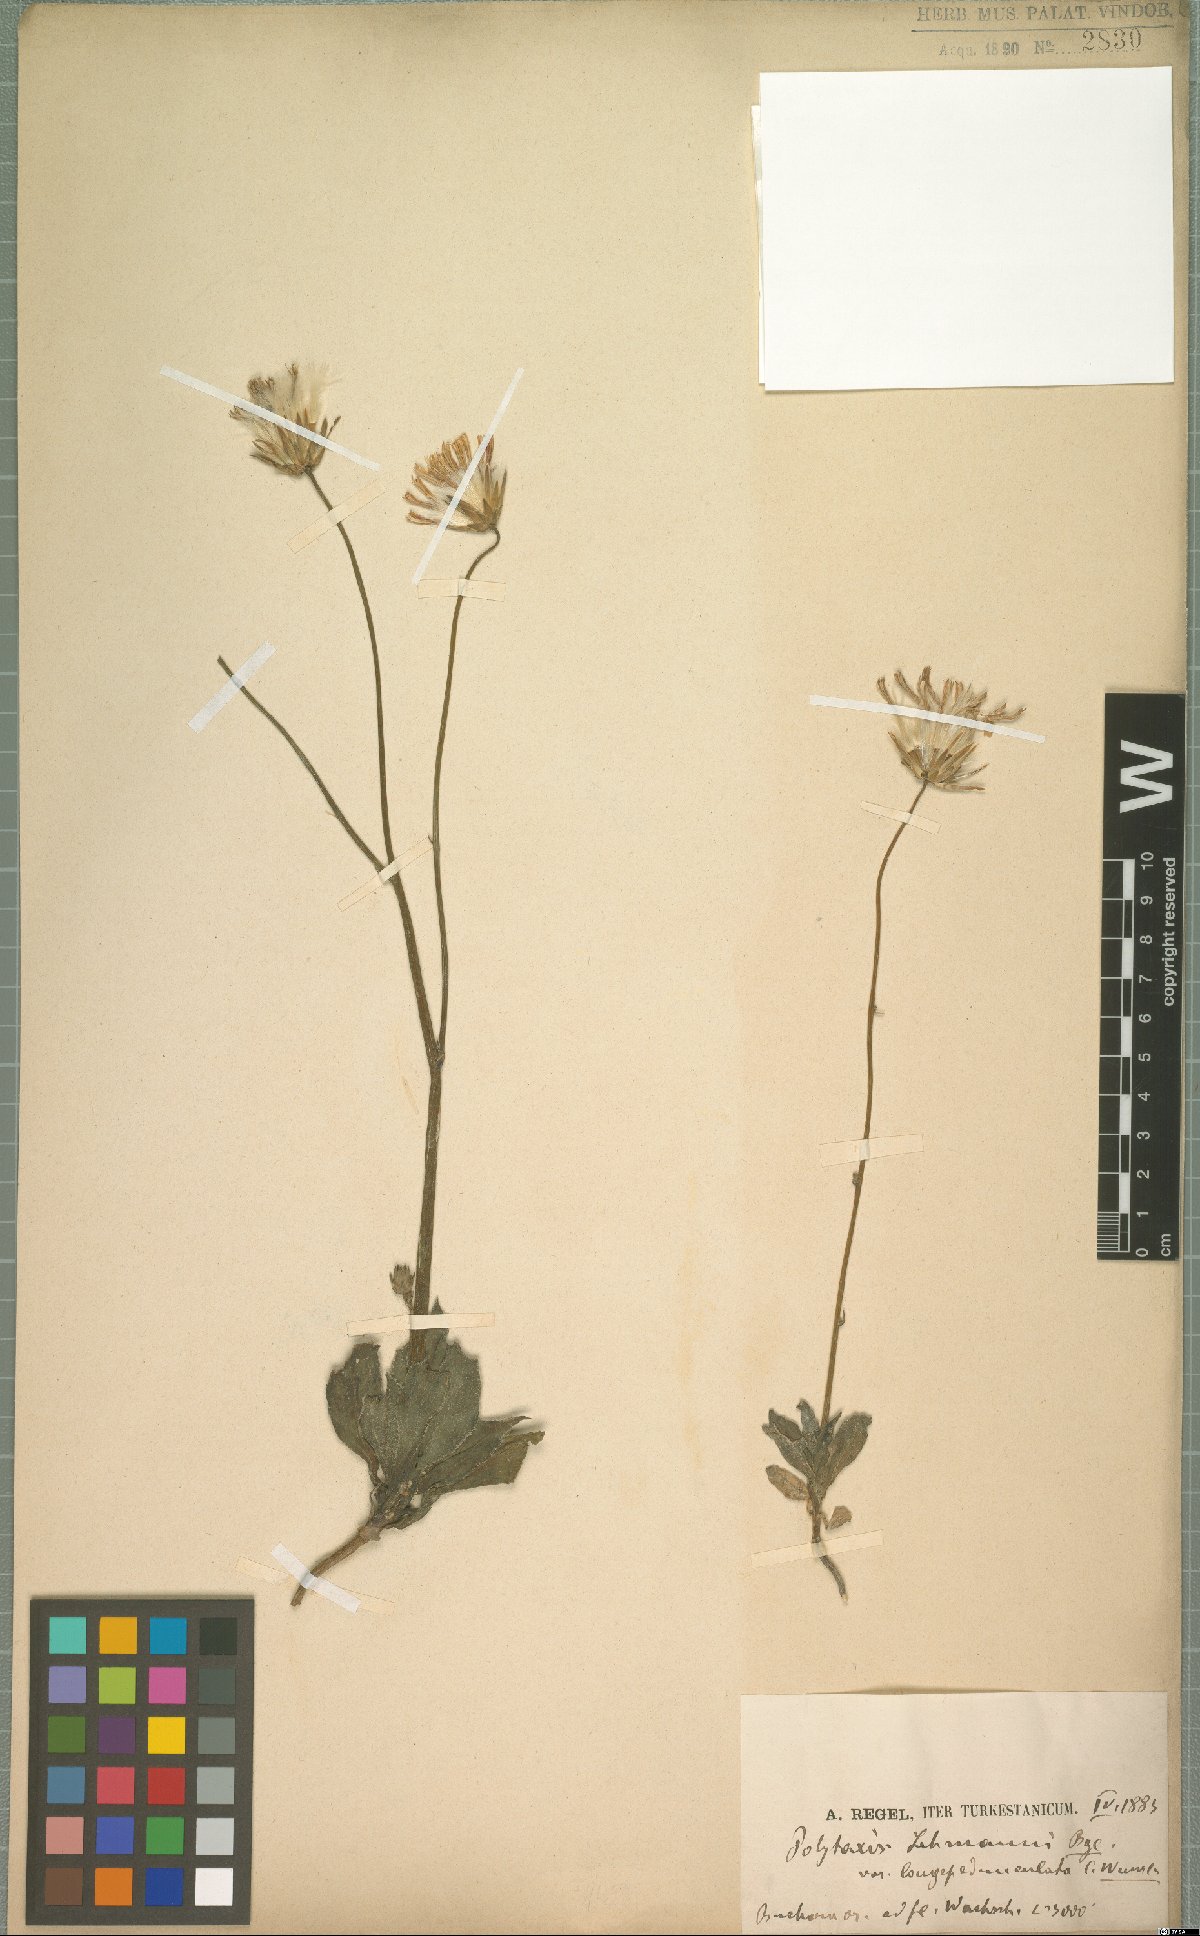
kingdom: Plantae
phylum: Tracheophyta
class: Magnoliopsida
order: Asterales
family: Asteraceae
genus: Saussurea
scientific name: Saussurea lehmannii
